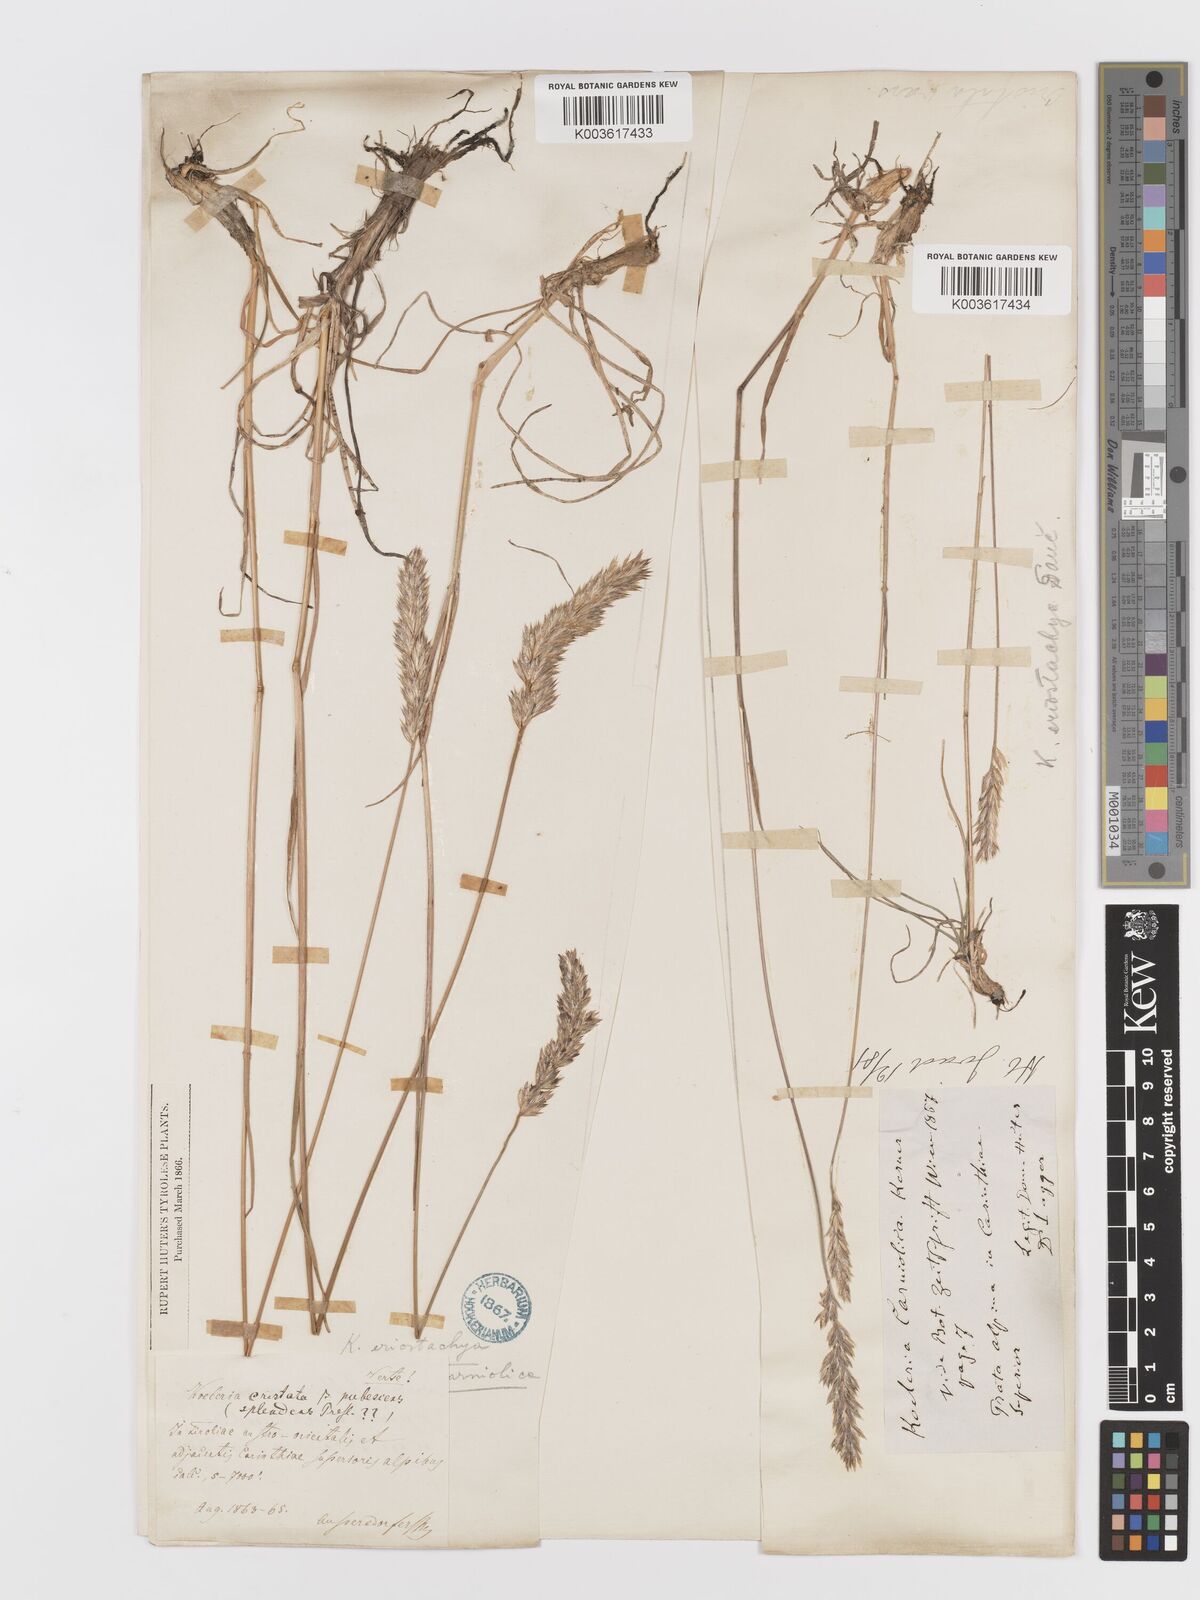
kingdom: Plantae
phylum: Tracheophyta
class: Liliopsida
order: Poales
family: Poaceae
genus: Koeleria
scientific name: Koeleria eriostachya
